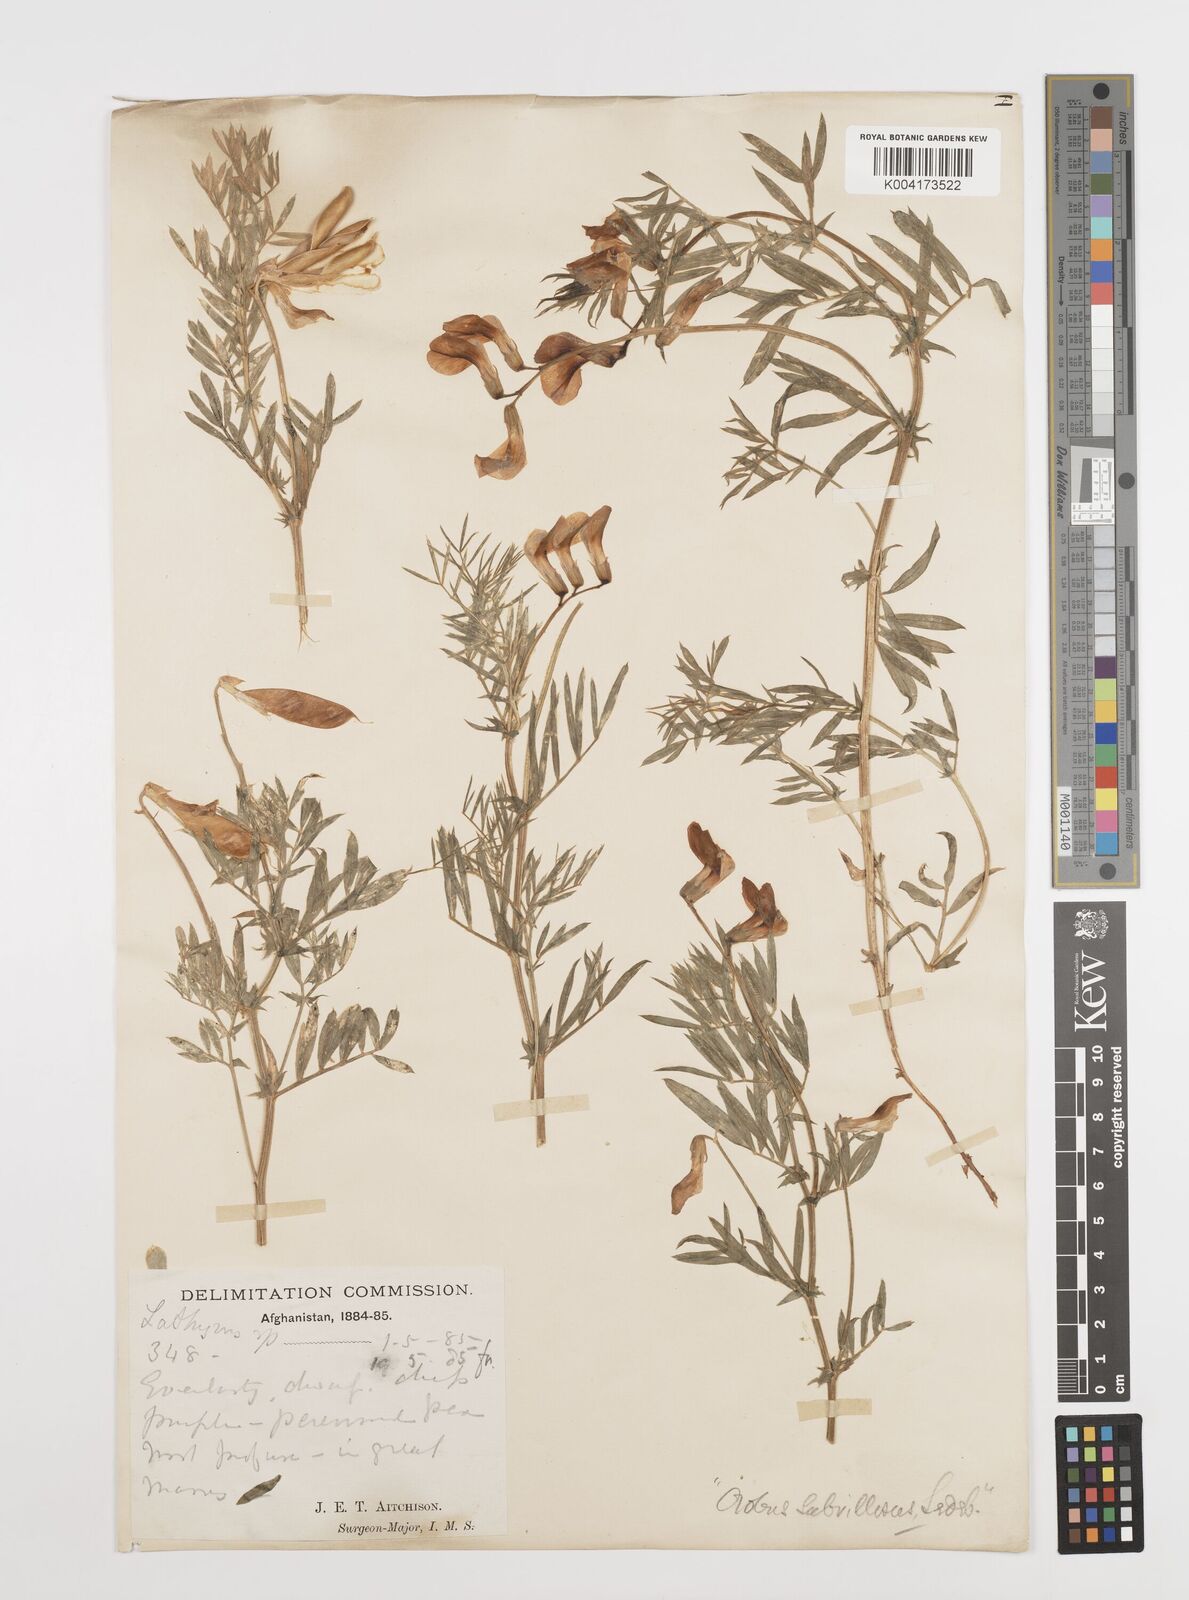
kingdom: Plantae
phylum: Tracheophyta
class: Magnoliopsida
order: Fabales
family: Fabaceae
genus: Vicia
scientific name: Vicia subvillosa
